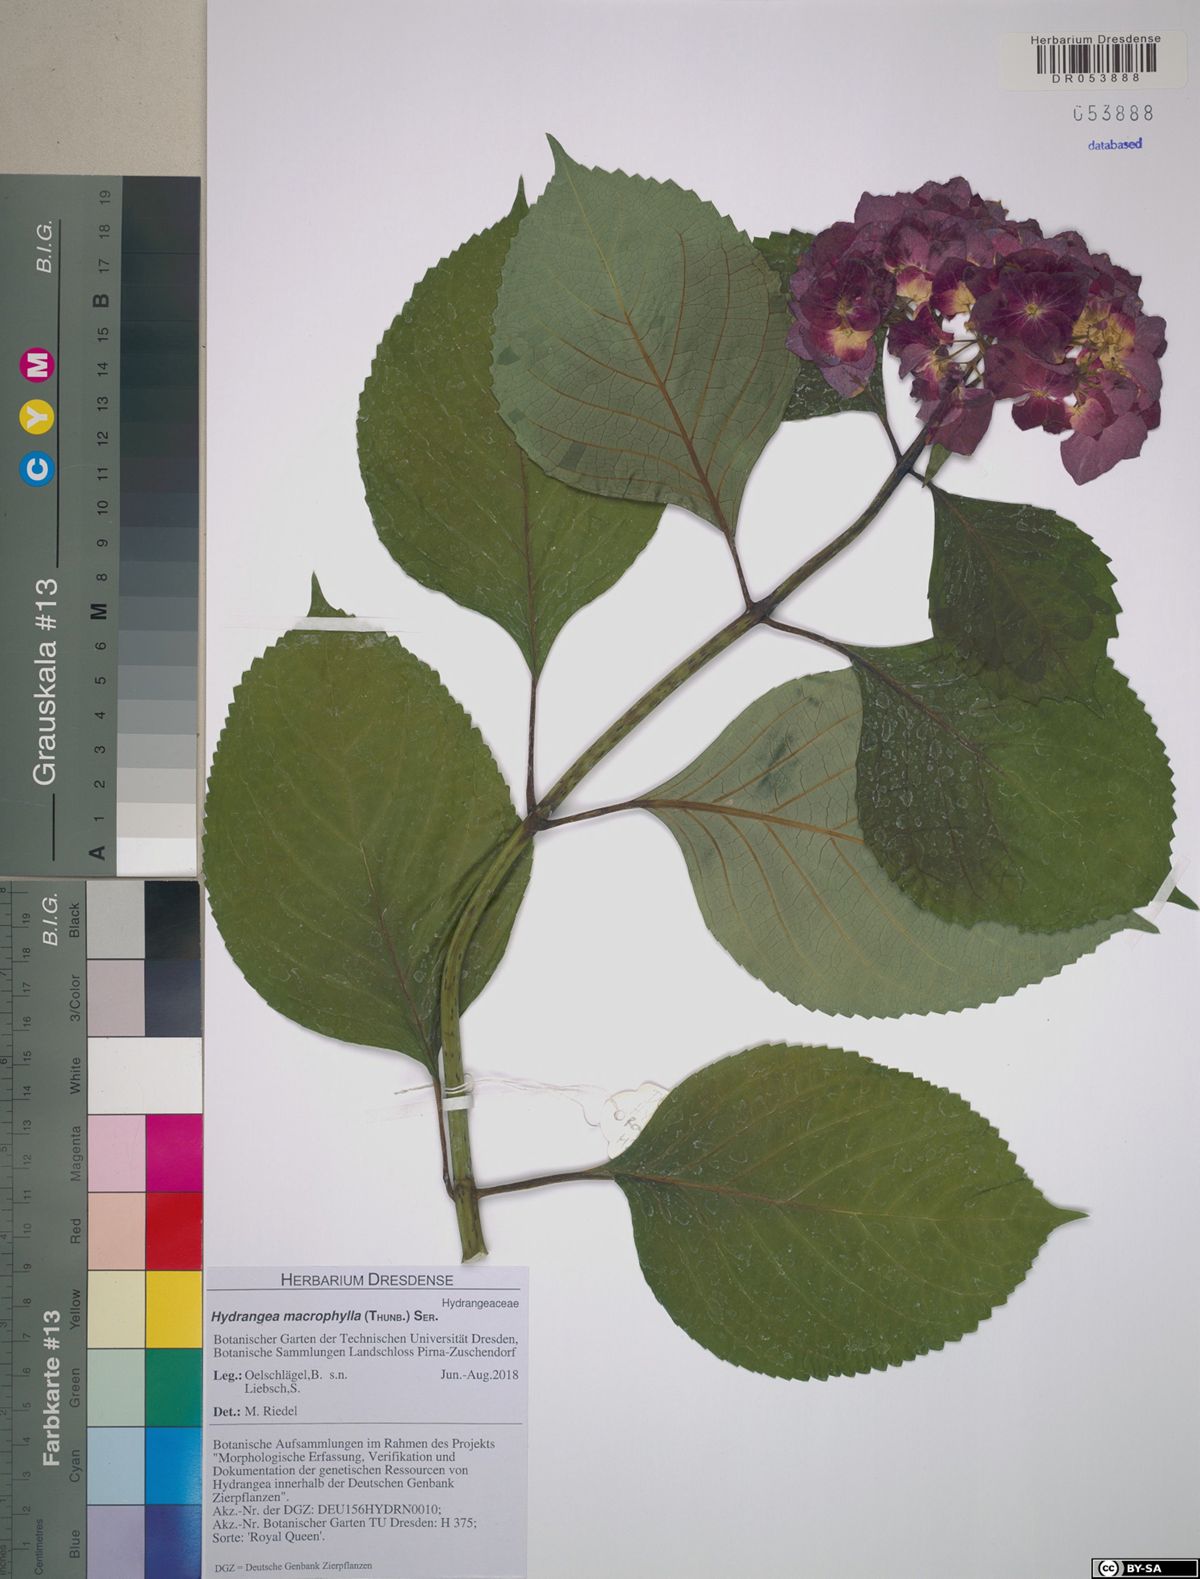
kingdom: Plantae
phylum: Tracheophyta
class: Magnoliopsida
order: Cornales
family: Hydrangeaceae
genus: Hydrangea
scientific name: Hydrangea macrophylla
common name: Hydrangea
